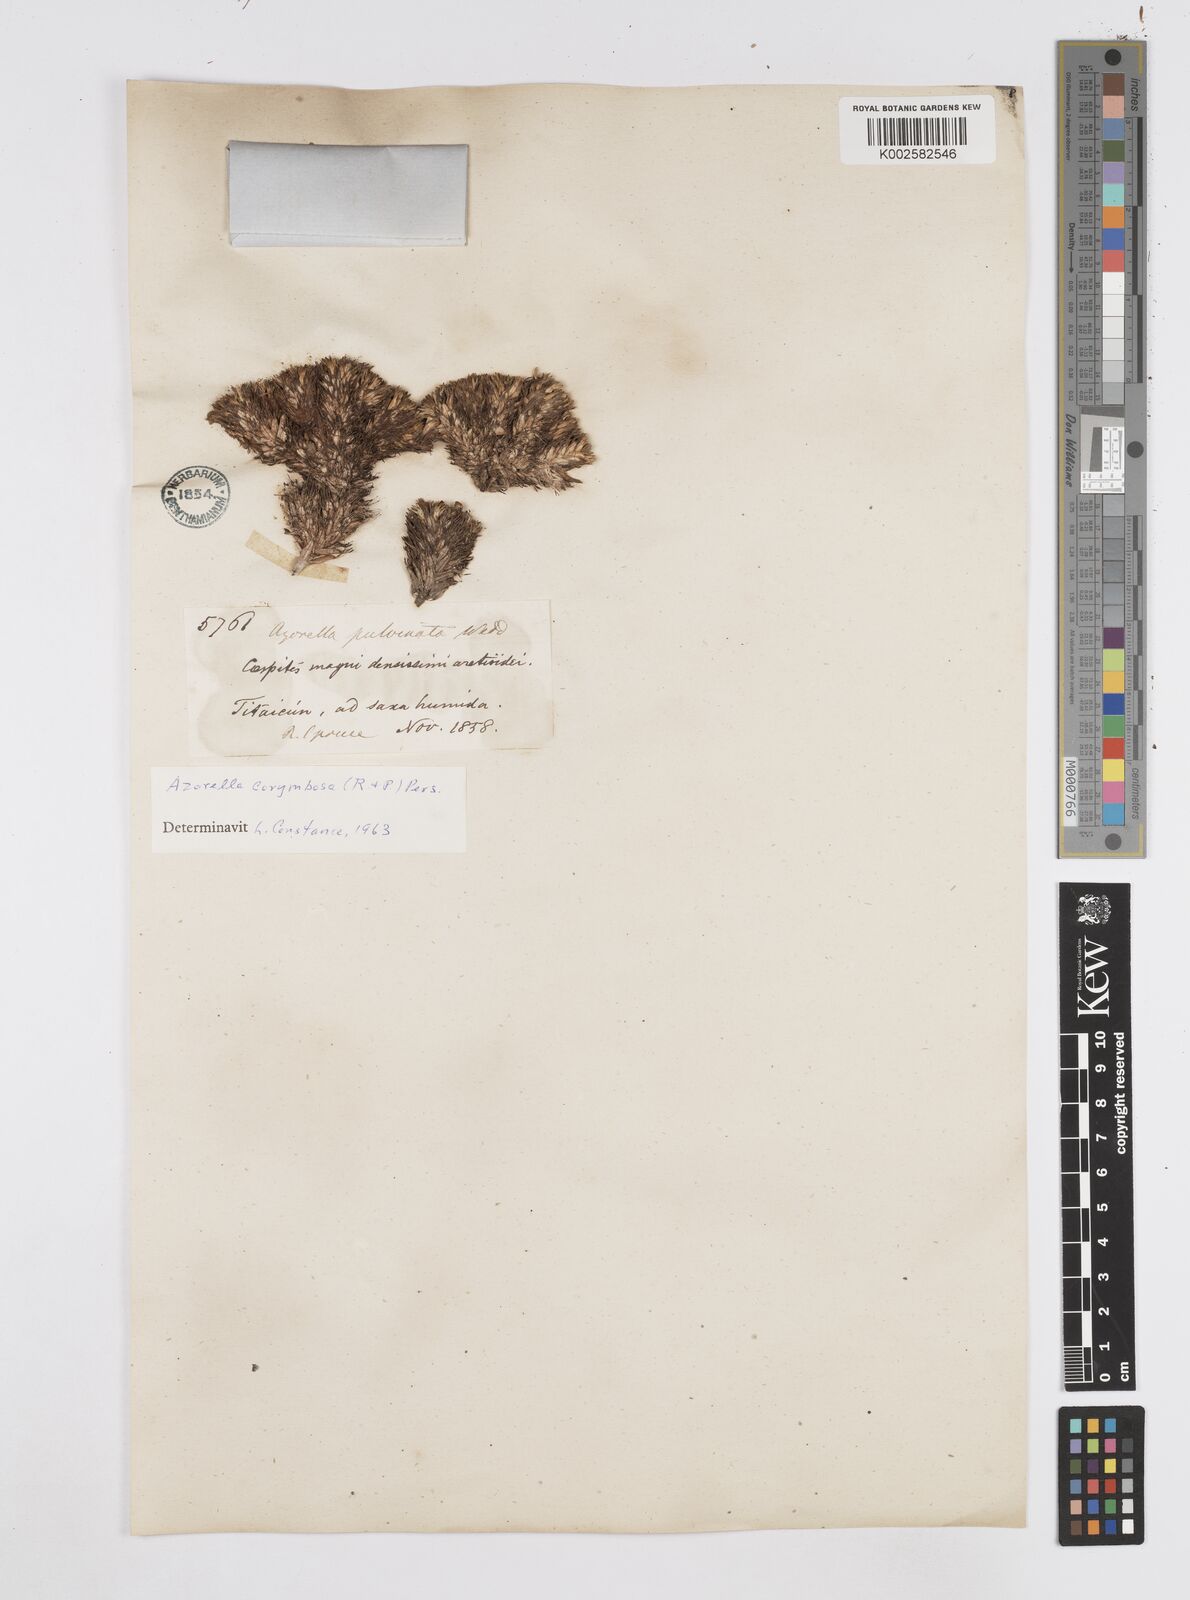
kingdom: Plantae
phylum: Tracheophyta
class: Magnoliopsida
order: Apiales
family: Apiaceae
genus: Azorella
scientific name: Azorella pulvinata
